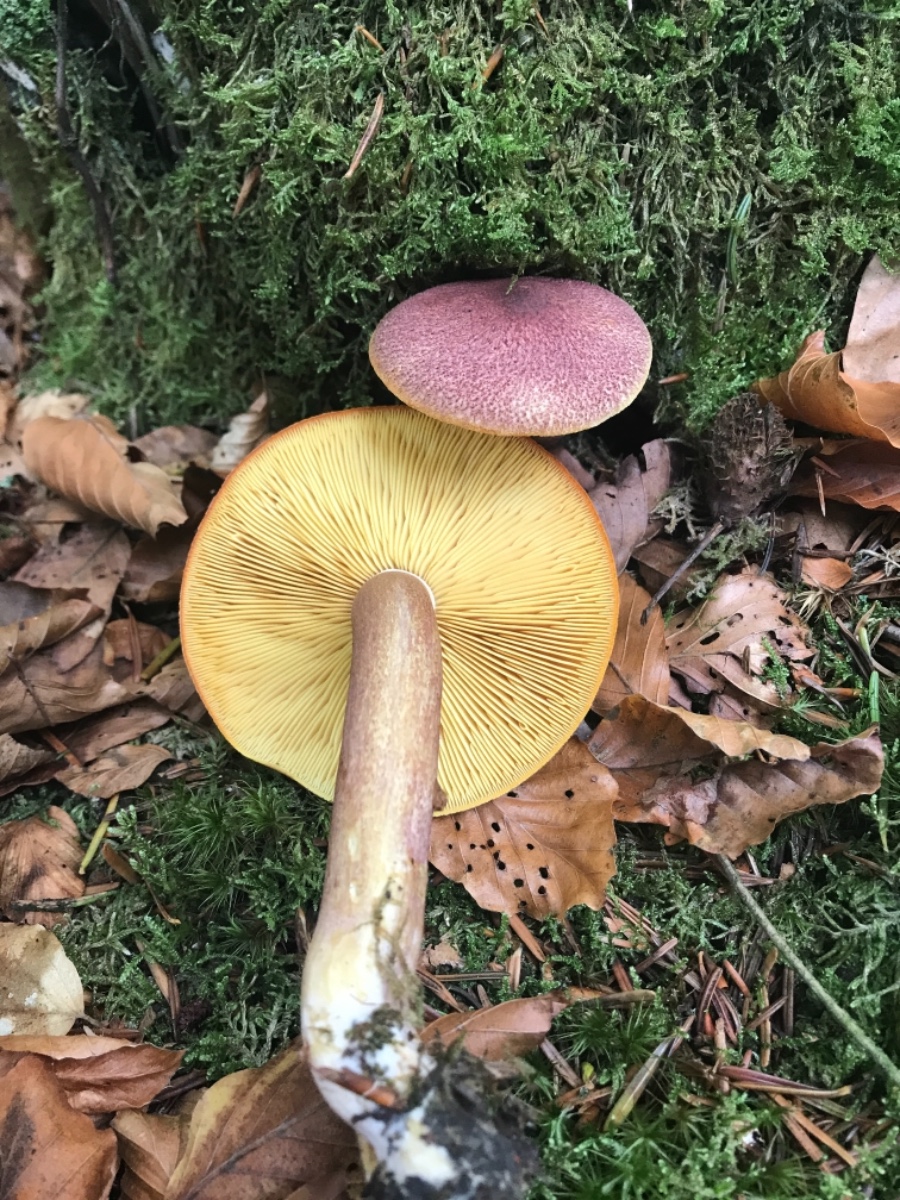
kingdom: Fungi
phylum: Basidiomycota
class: Agaricomycetes
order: Agaricales
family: Tricholomataceae
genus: Tricholomopsis
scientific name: Tricholomopsis rutilans
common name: purpur-væbnerhat
